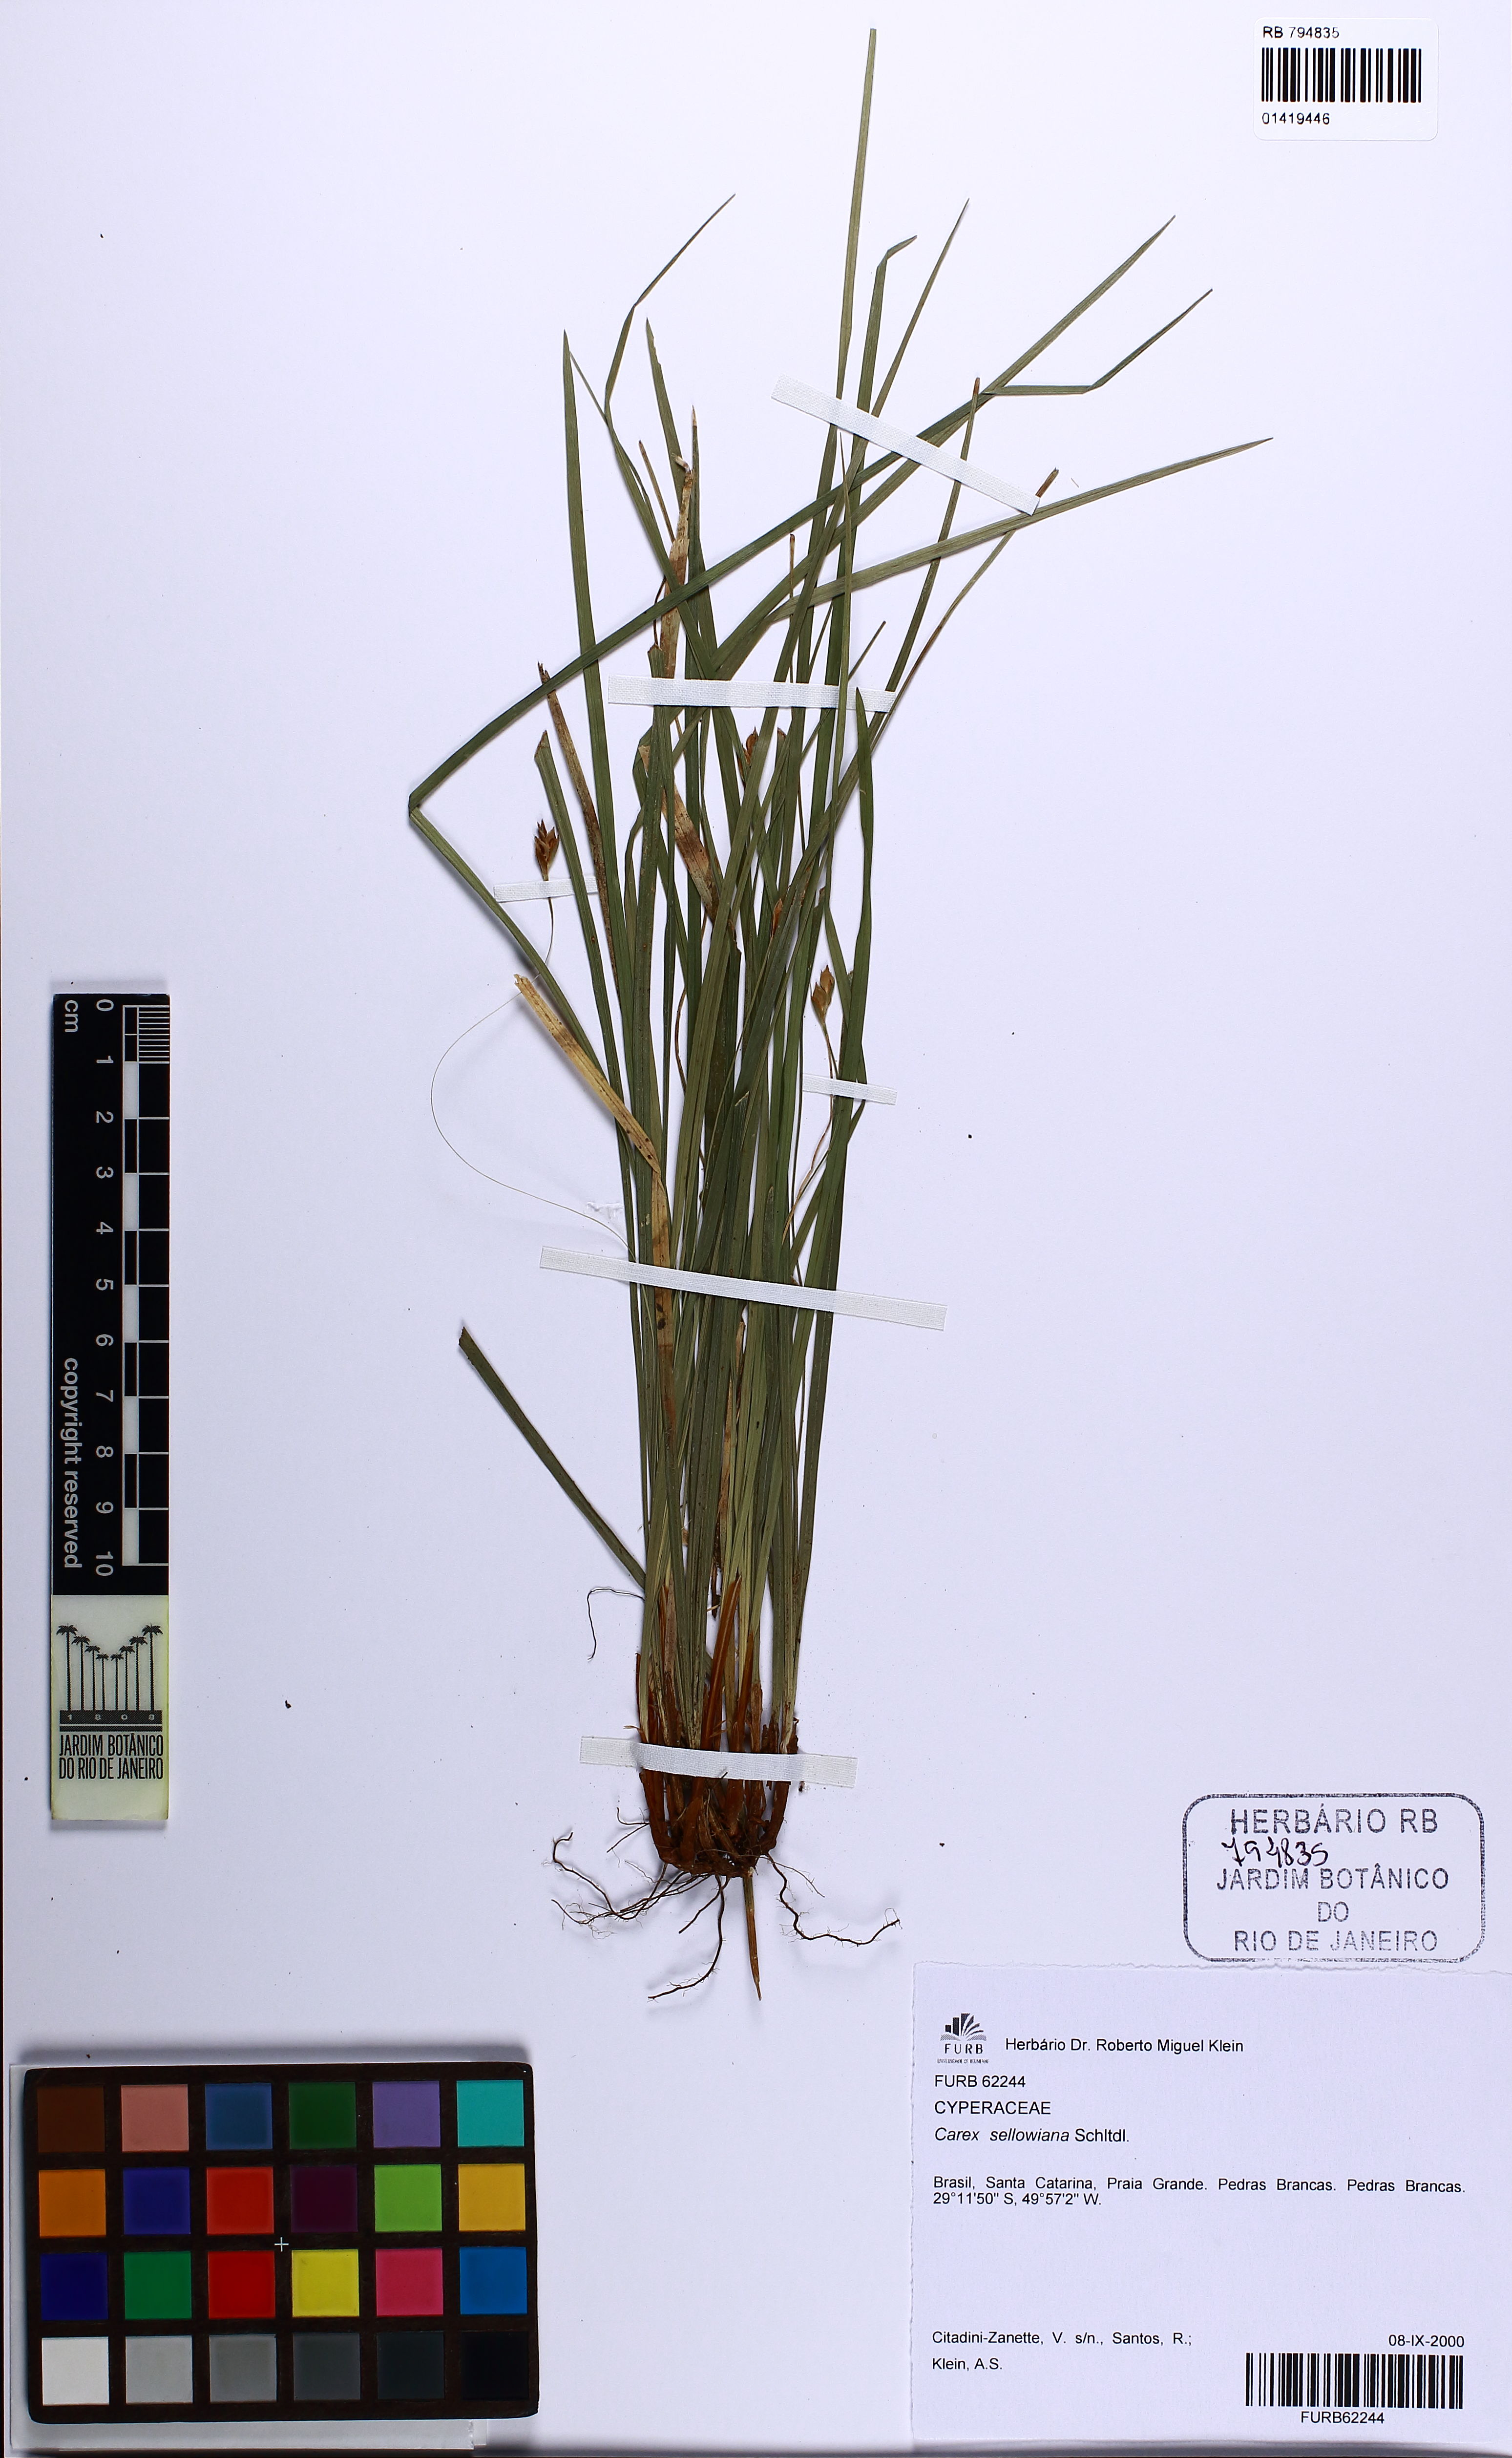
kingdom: Plantae
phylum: Tracheophyta
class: Liliopsida
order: Poales
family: Cyperaceae
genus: Carex
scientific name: Carex sellowiana
